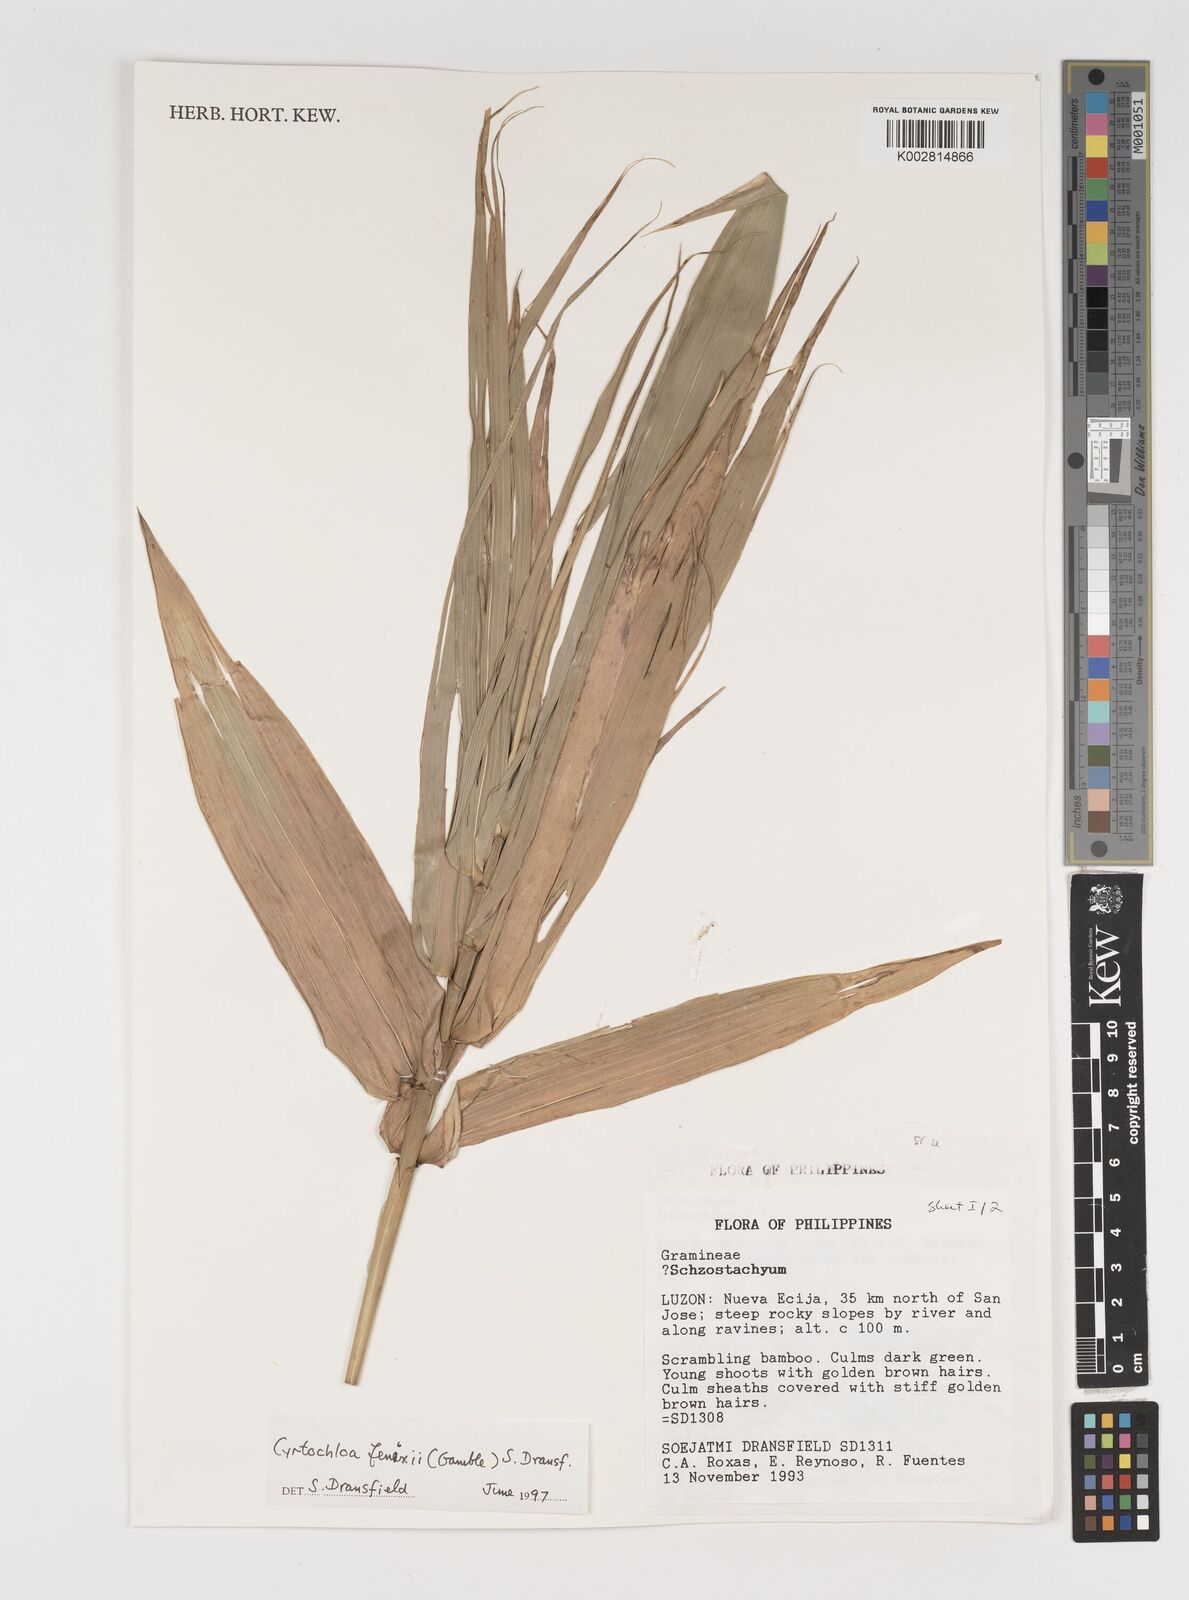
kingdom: Plantae
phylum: Tracheophyta
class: Liliopsida
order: Poales
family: Poaceae
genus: Cyrtochloa
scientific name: Cyrtochloa fenixii
